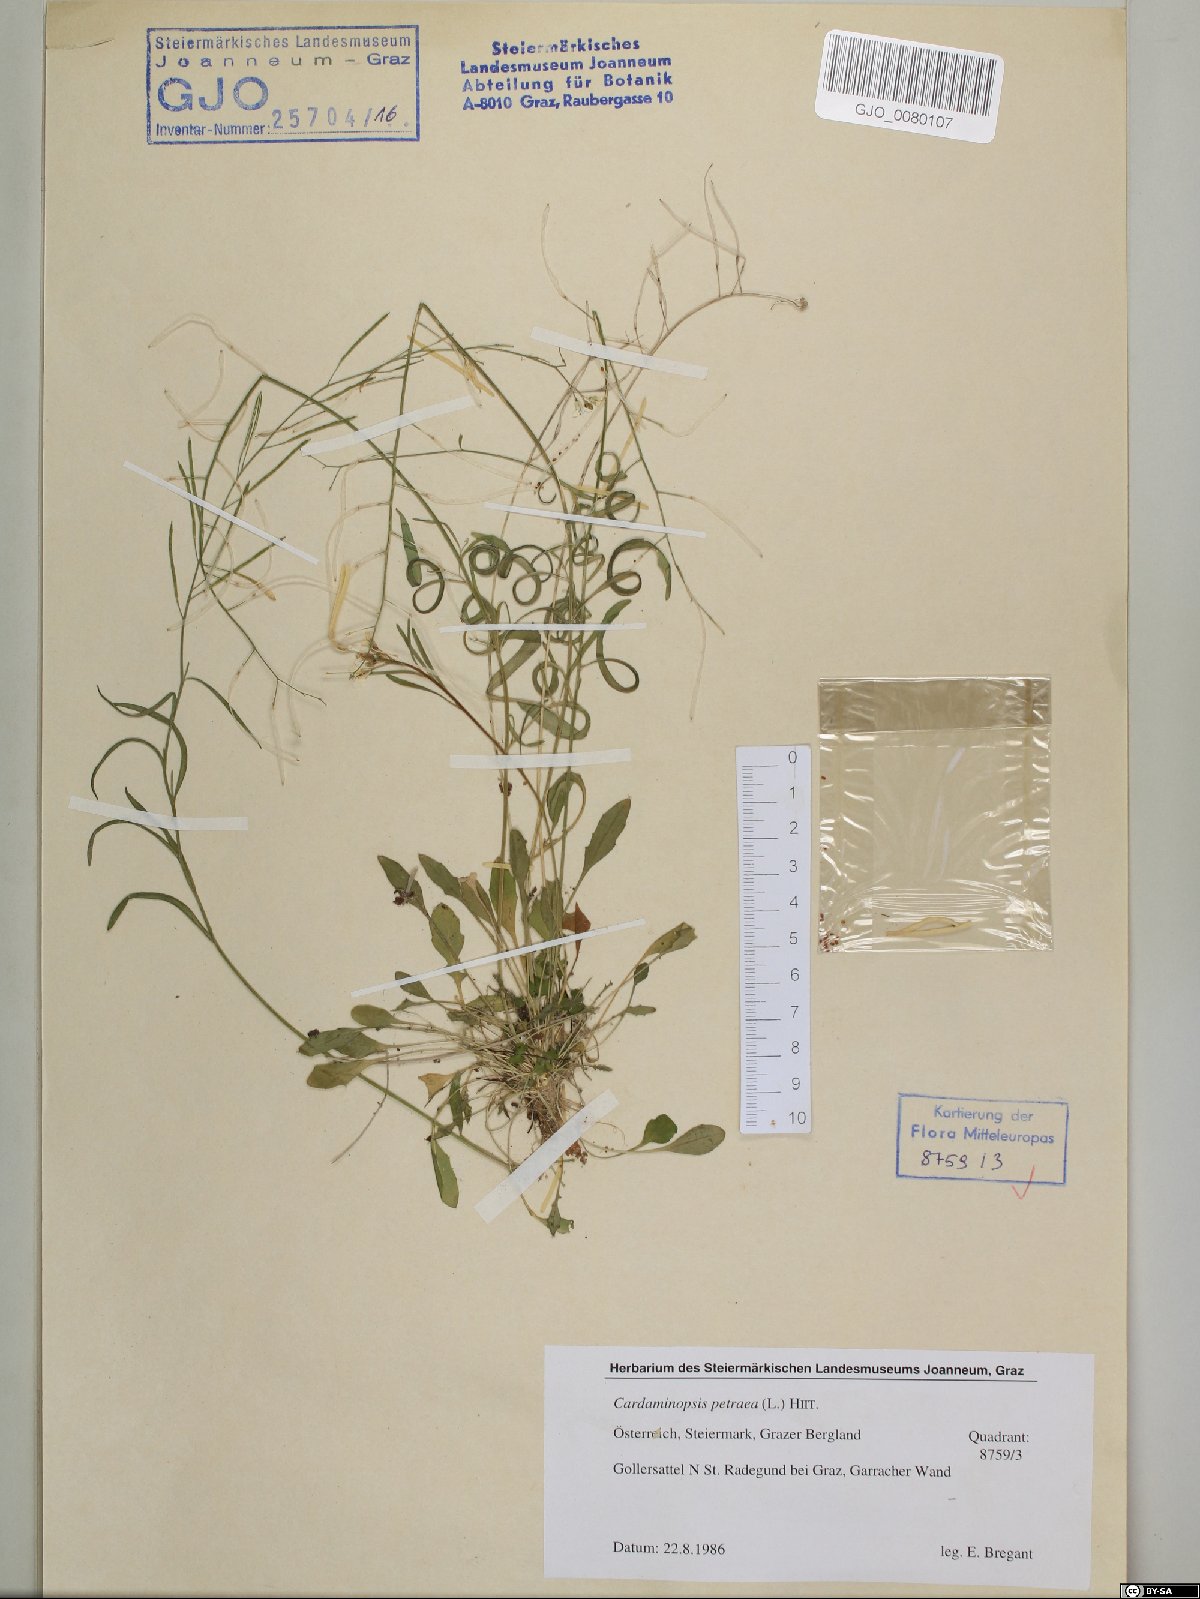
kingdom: Plantae
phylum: Tracheophyta
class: Magnoliopsida
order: Brassicales
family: Brassicaceae
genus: Arabidopsis
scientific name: Arabidopsis lyrata
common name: Lyrate rockcress
